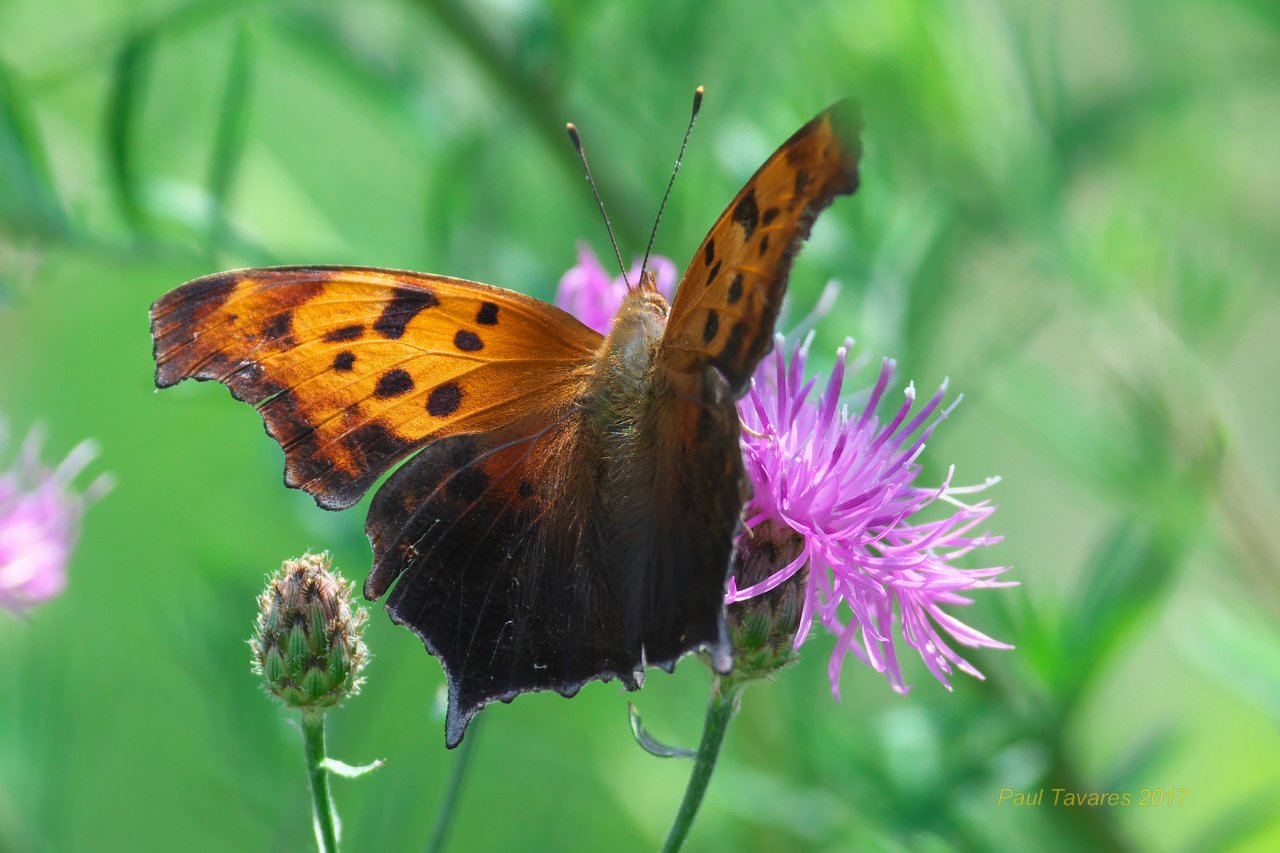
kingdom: Animalia
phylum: Arthropoda
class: Insecta
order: Lepidoptera
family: Nymphalidae
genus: Polygonia
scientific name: Polygonia interrogationis
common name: Question Mark
